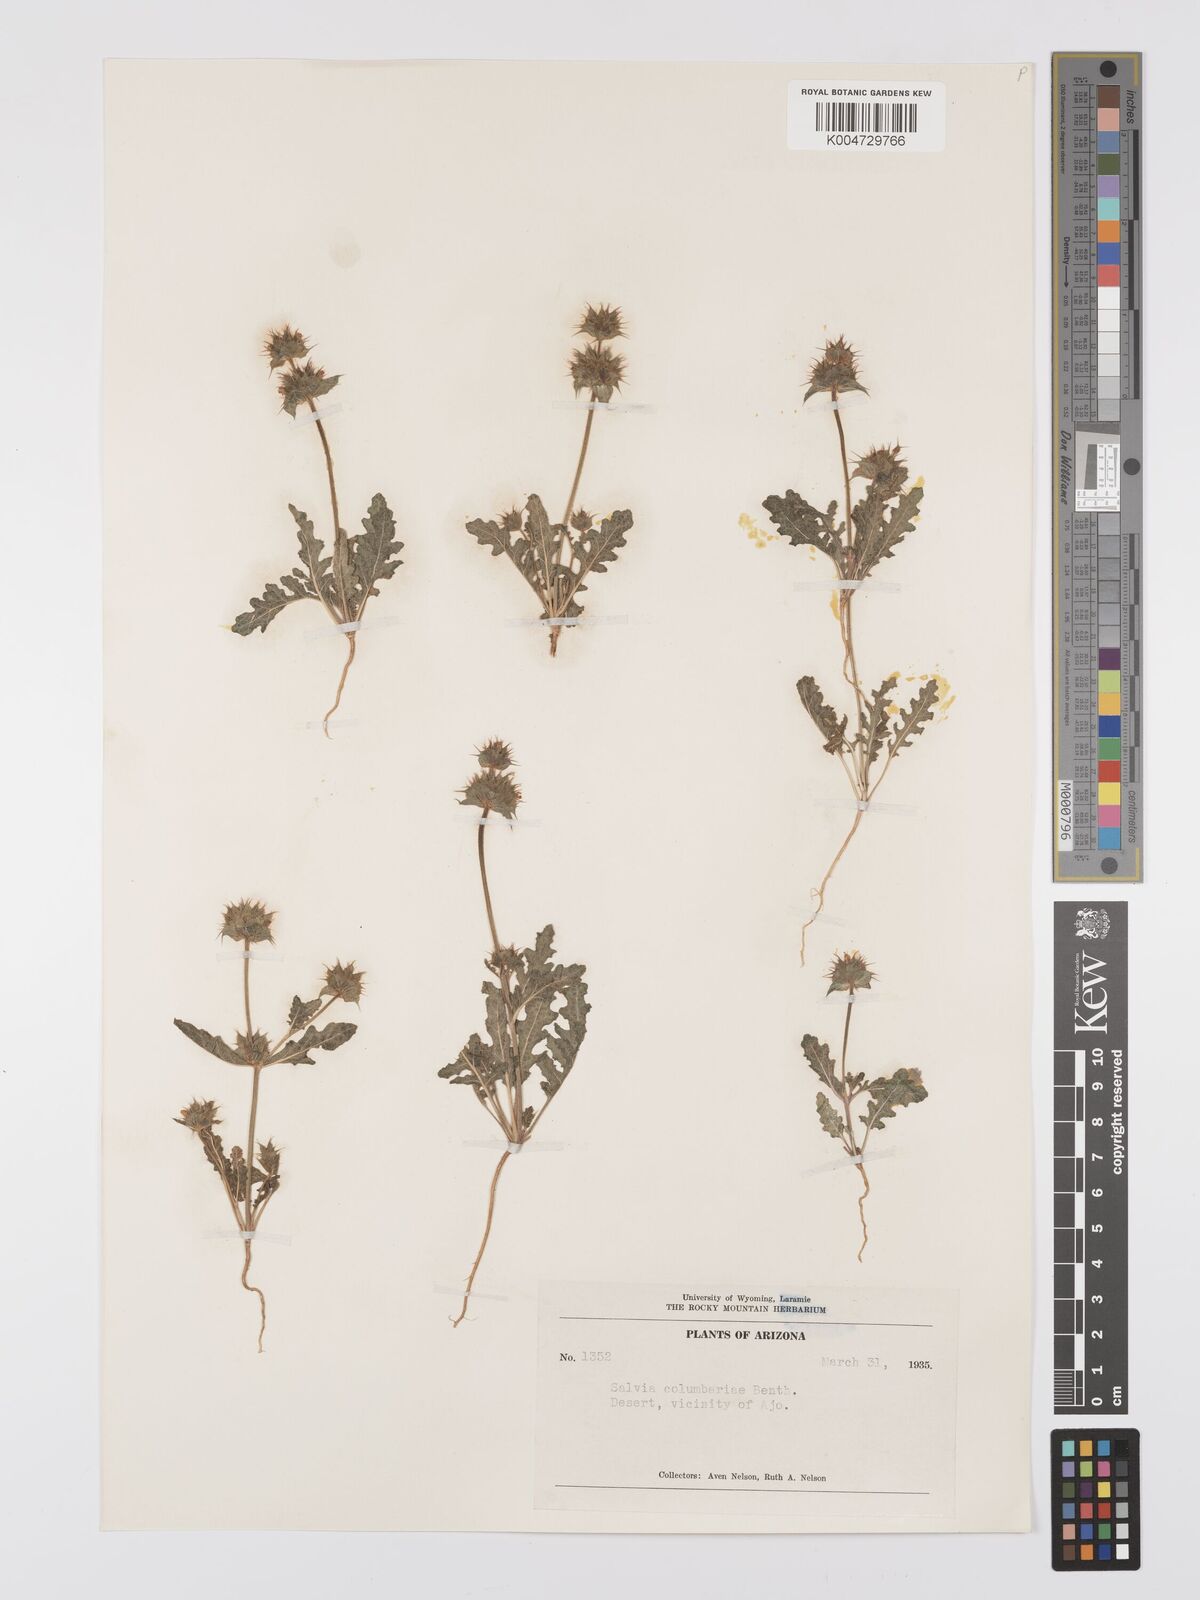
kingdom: Plantae
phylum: Tracheophyta
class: Magnoliopsida
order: Lamiales
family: Lamiaceae
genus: Salvia
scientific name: Salvia columbariae
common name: Chia
